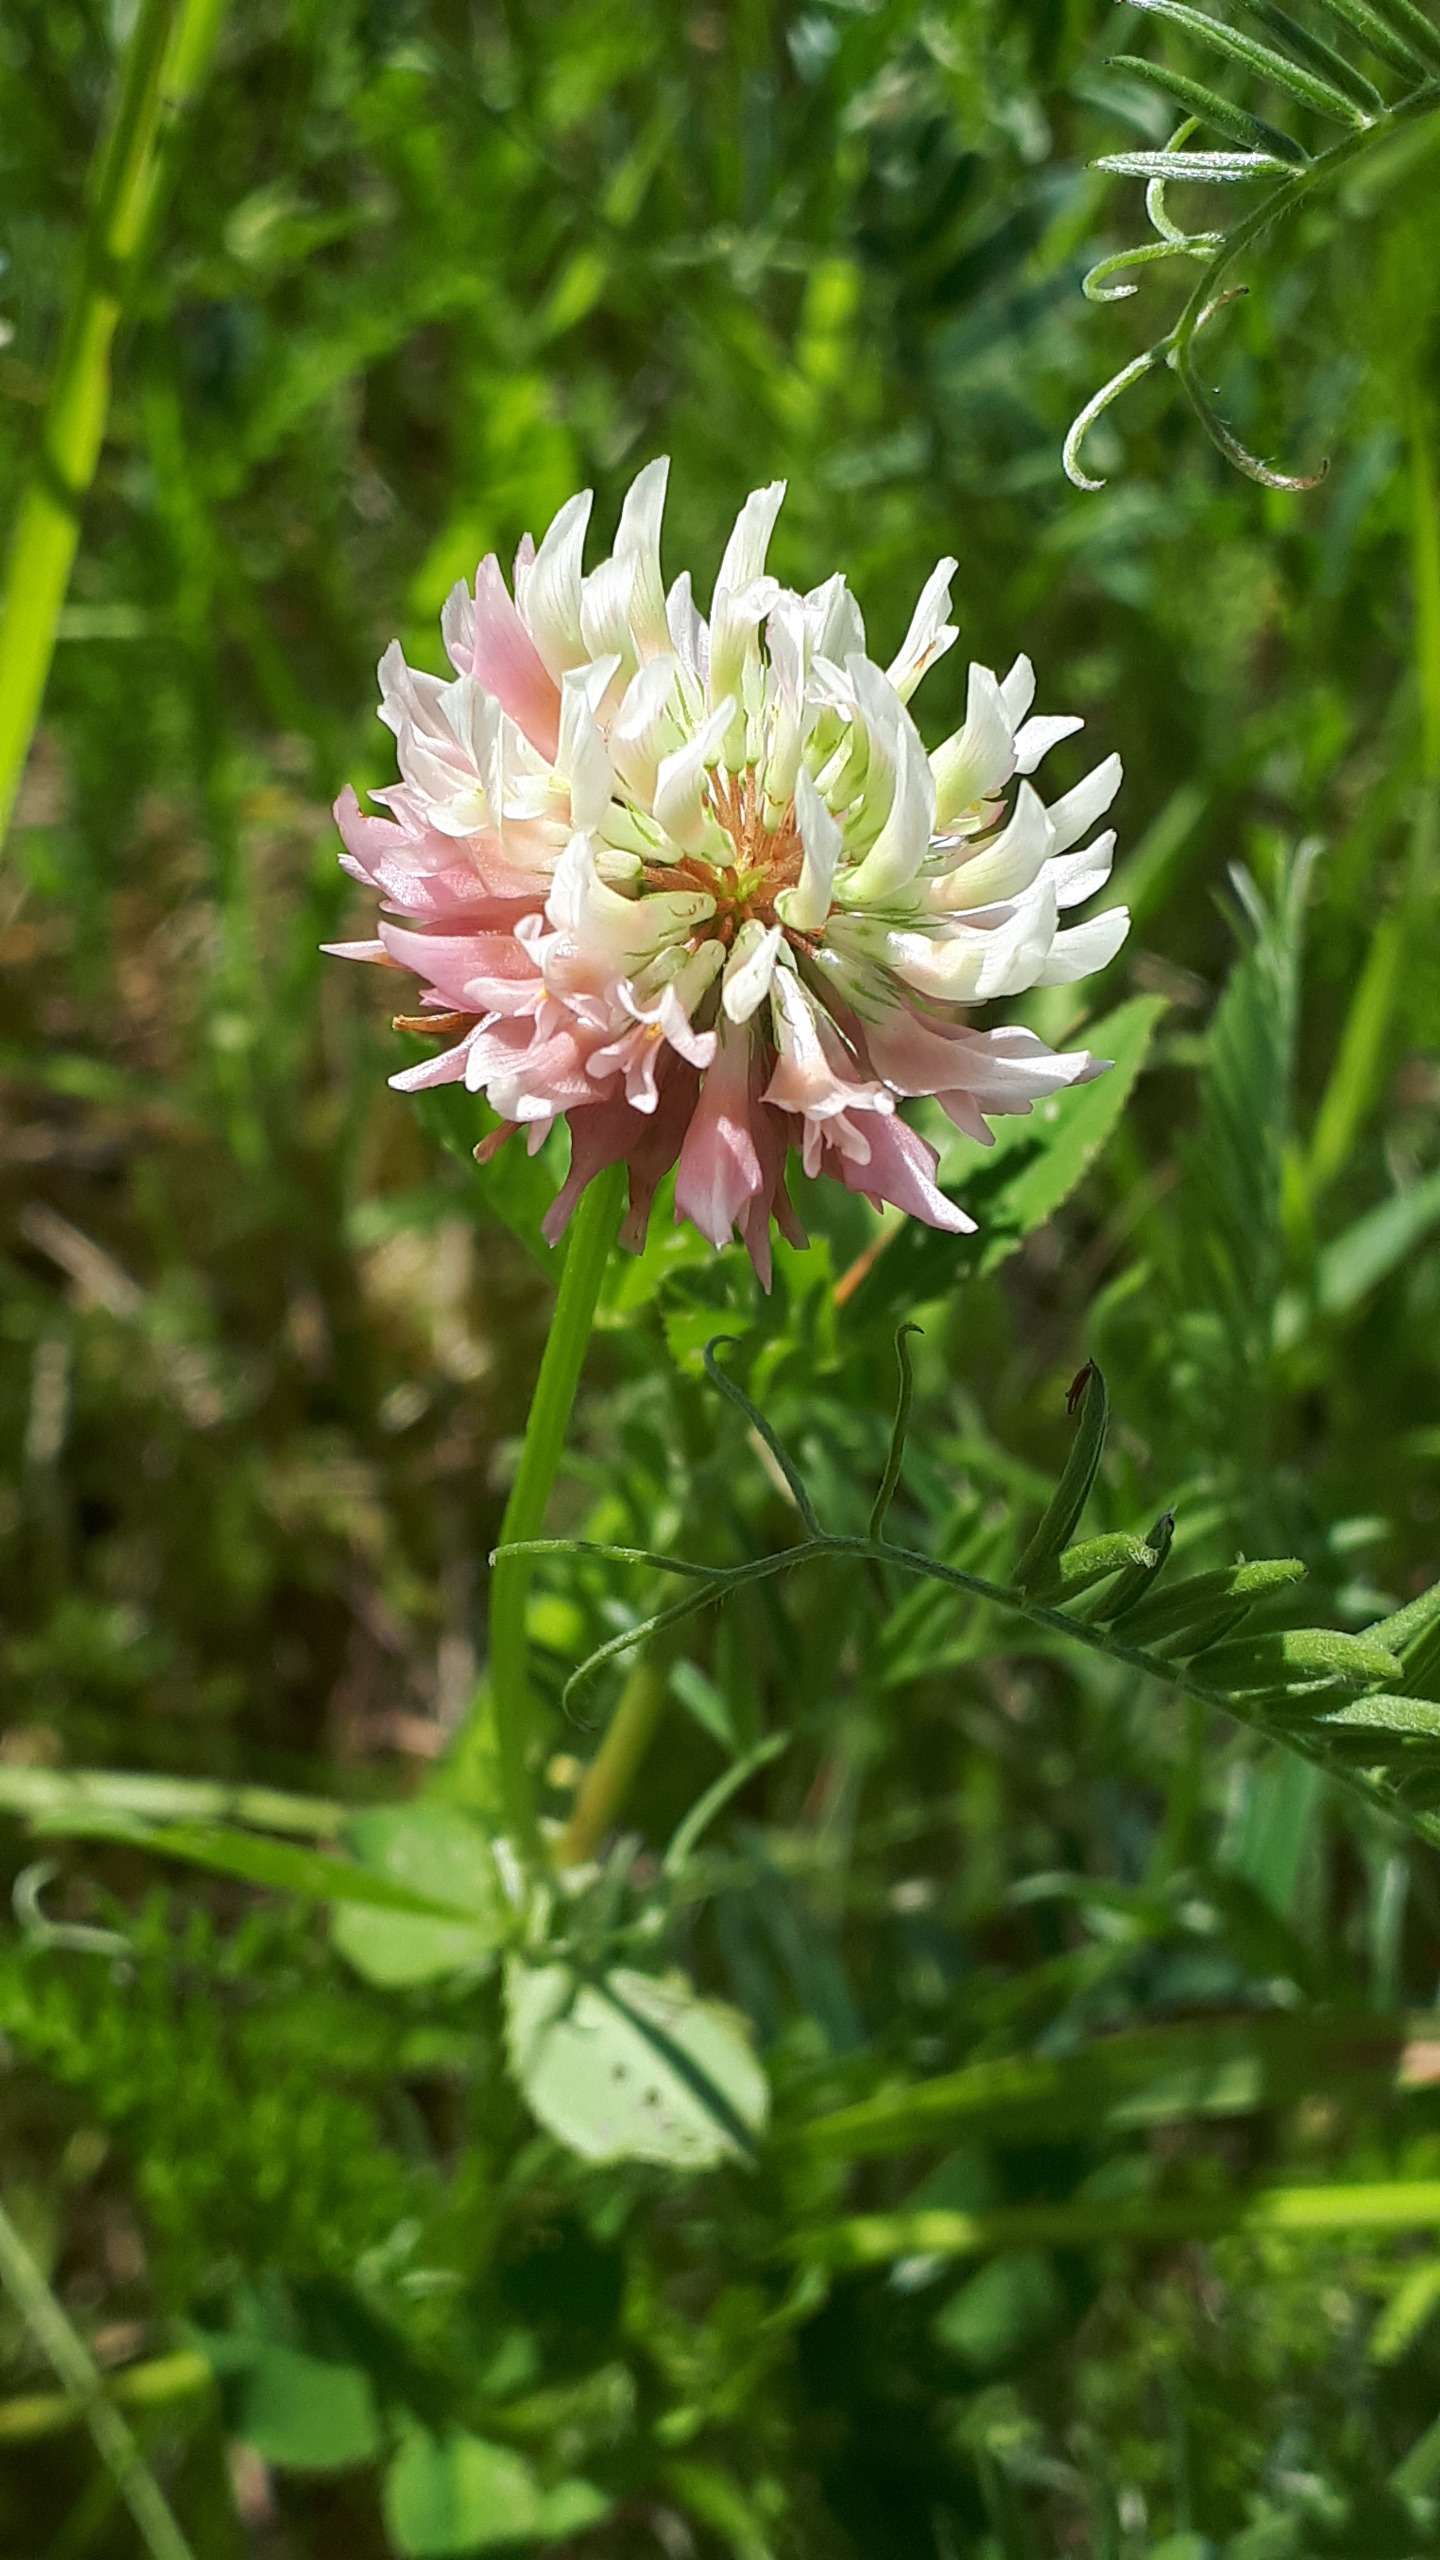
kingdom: Plantae
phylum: Tracheophyta
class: Magnoliopsida
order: Fabales
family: Fabaceae
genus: Trifolium
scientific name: Trifolium hybridum
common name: Alsike-kløver
